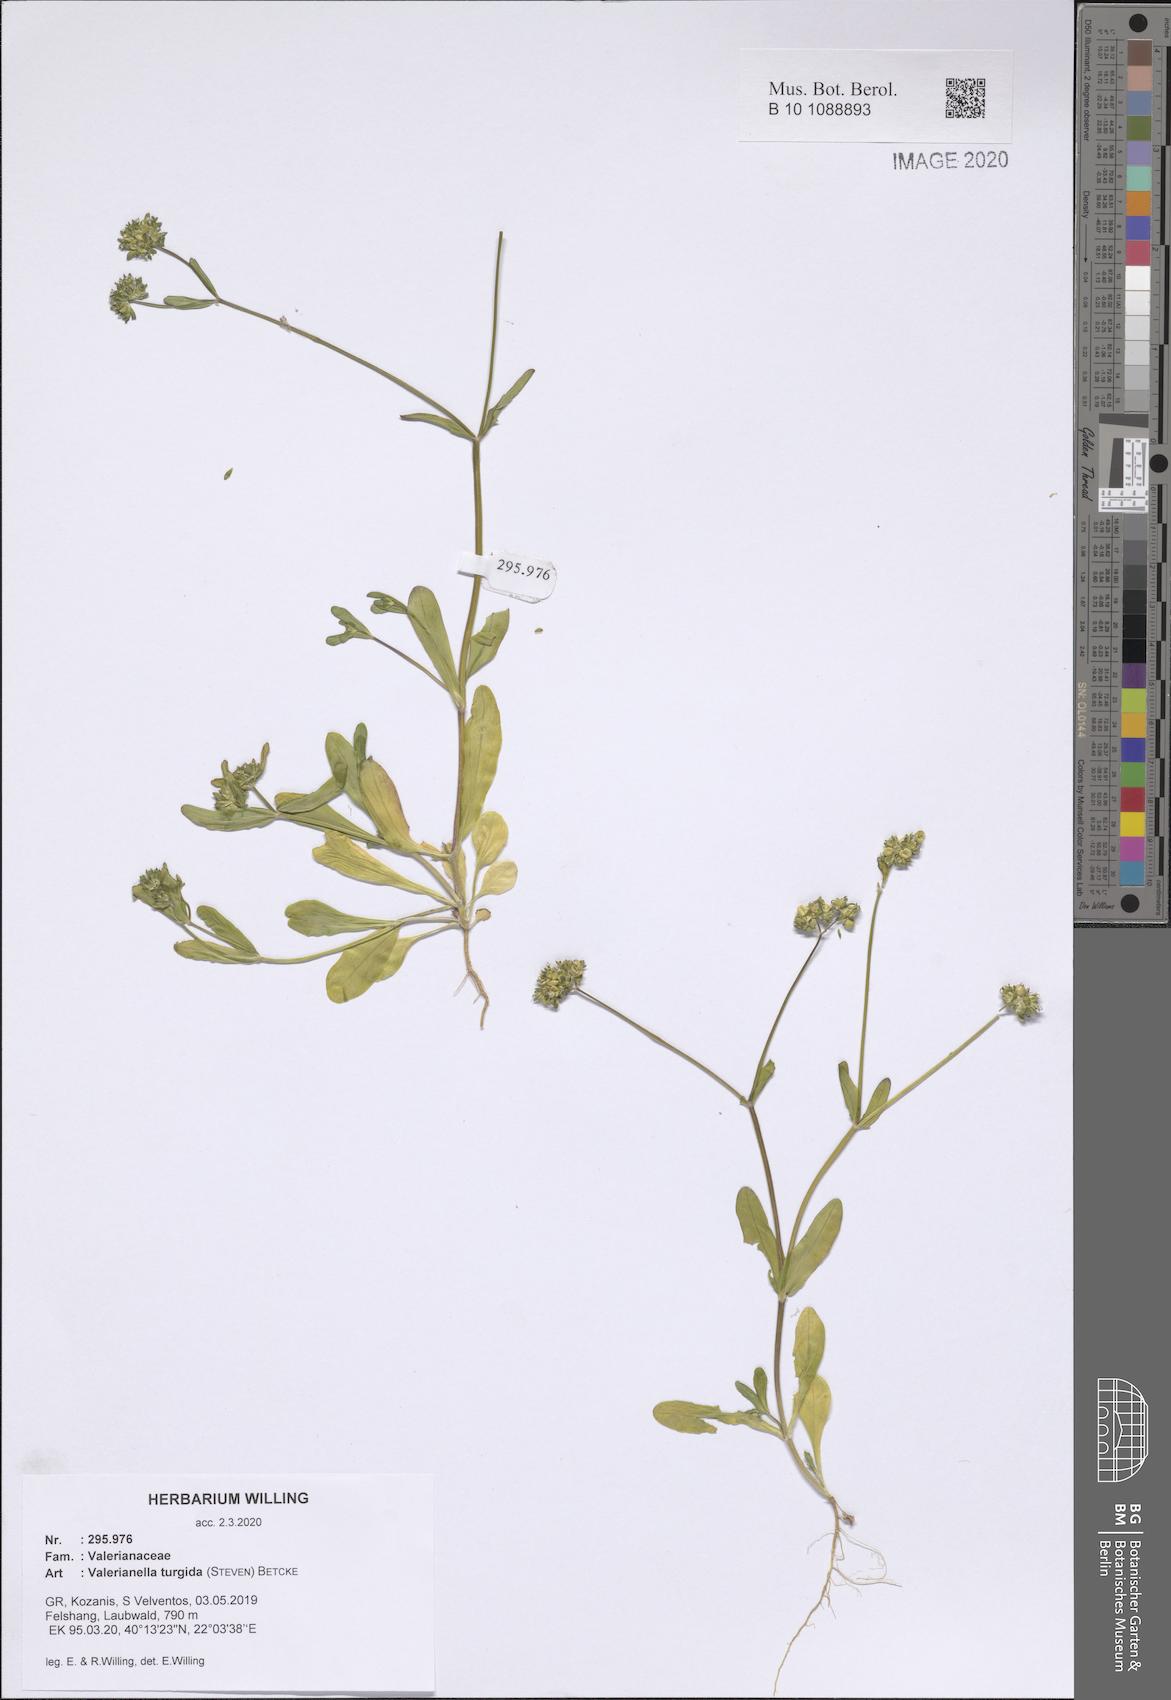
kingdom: Plantae
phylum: Tracheophyta
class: Magnoliopsida
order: Dipsacales
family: Caprifoliaceae
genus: Valerianella
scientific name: Valerianella turgida
